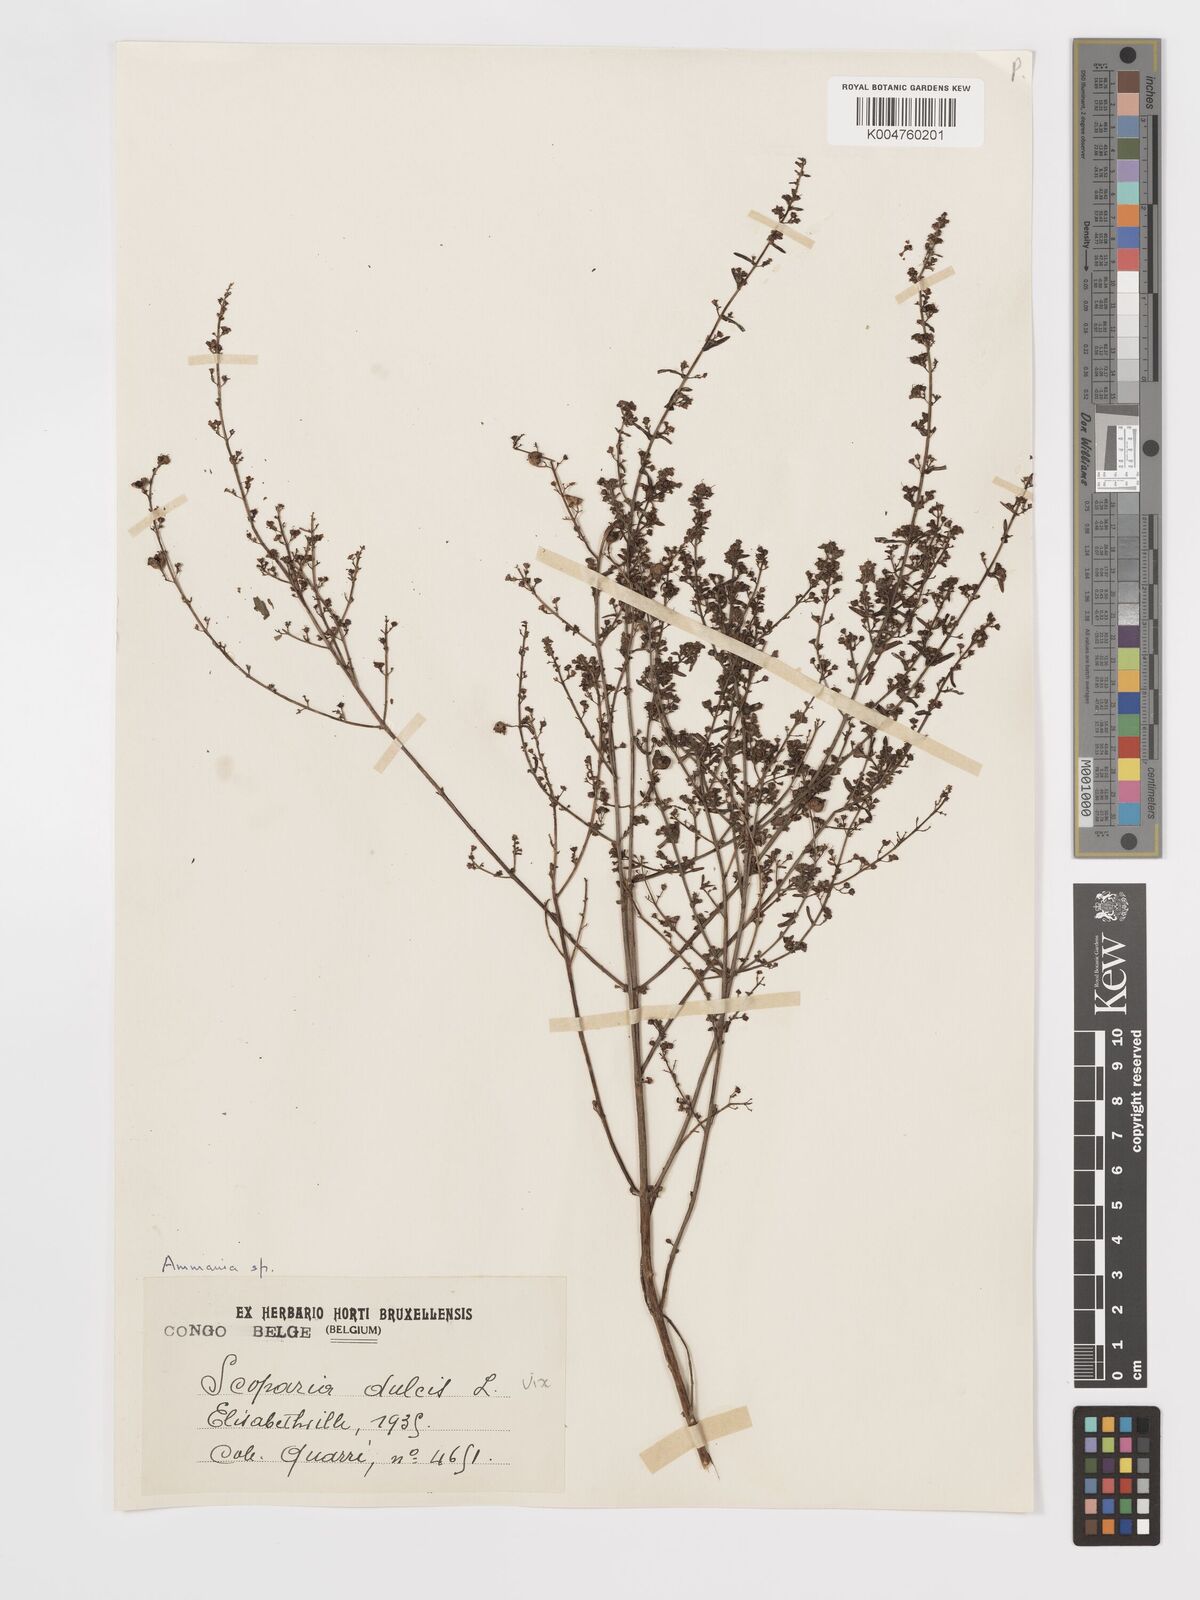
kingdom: Plantae
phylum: Tracheophyta
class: Magnoliopsida
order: Myrtales
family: Lythraceae
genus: Ammannia
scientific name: Ammannia prieuriana
